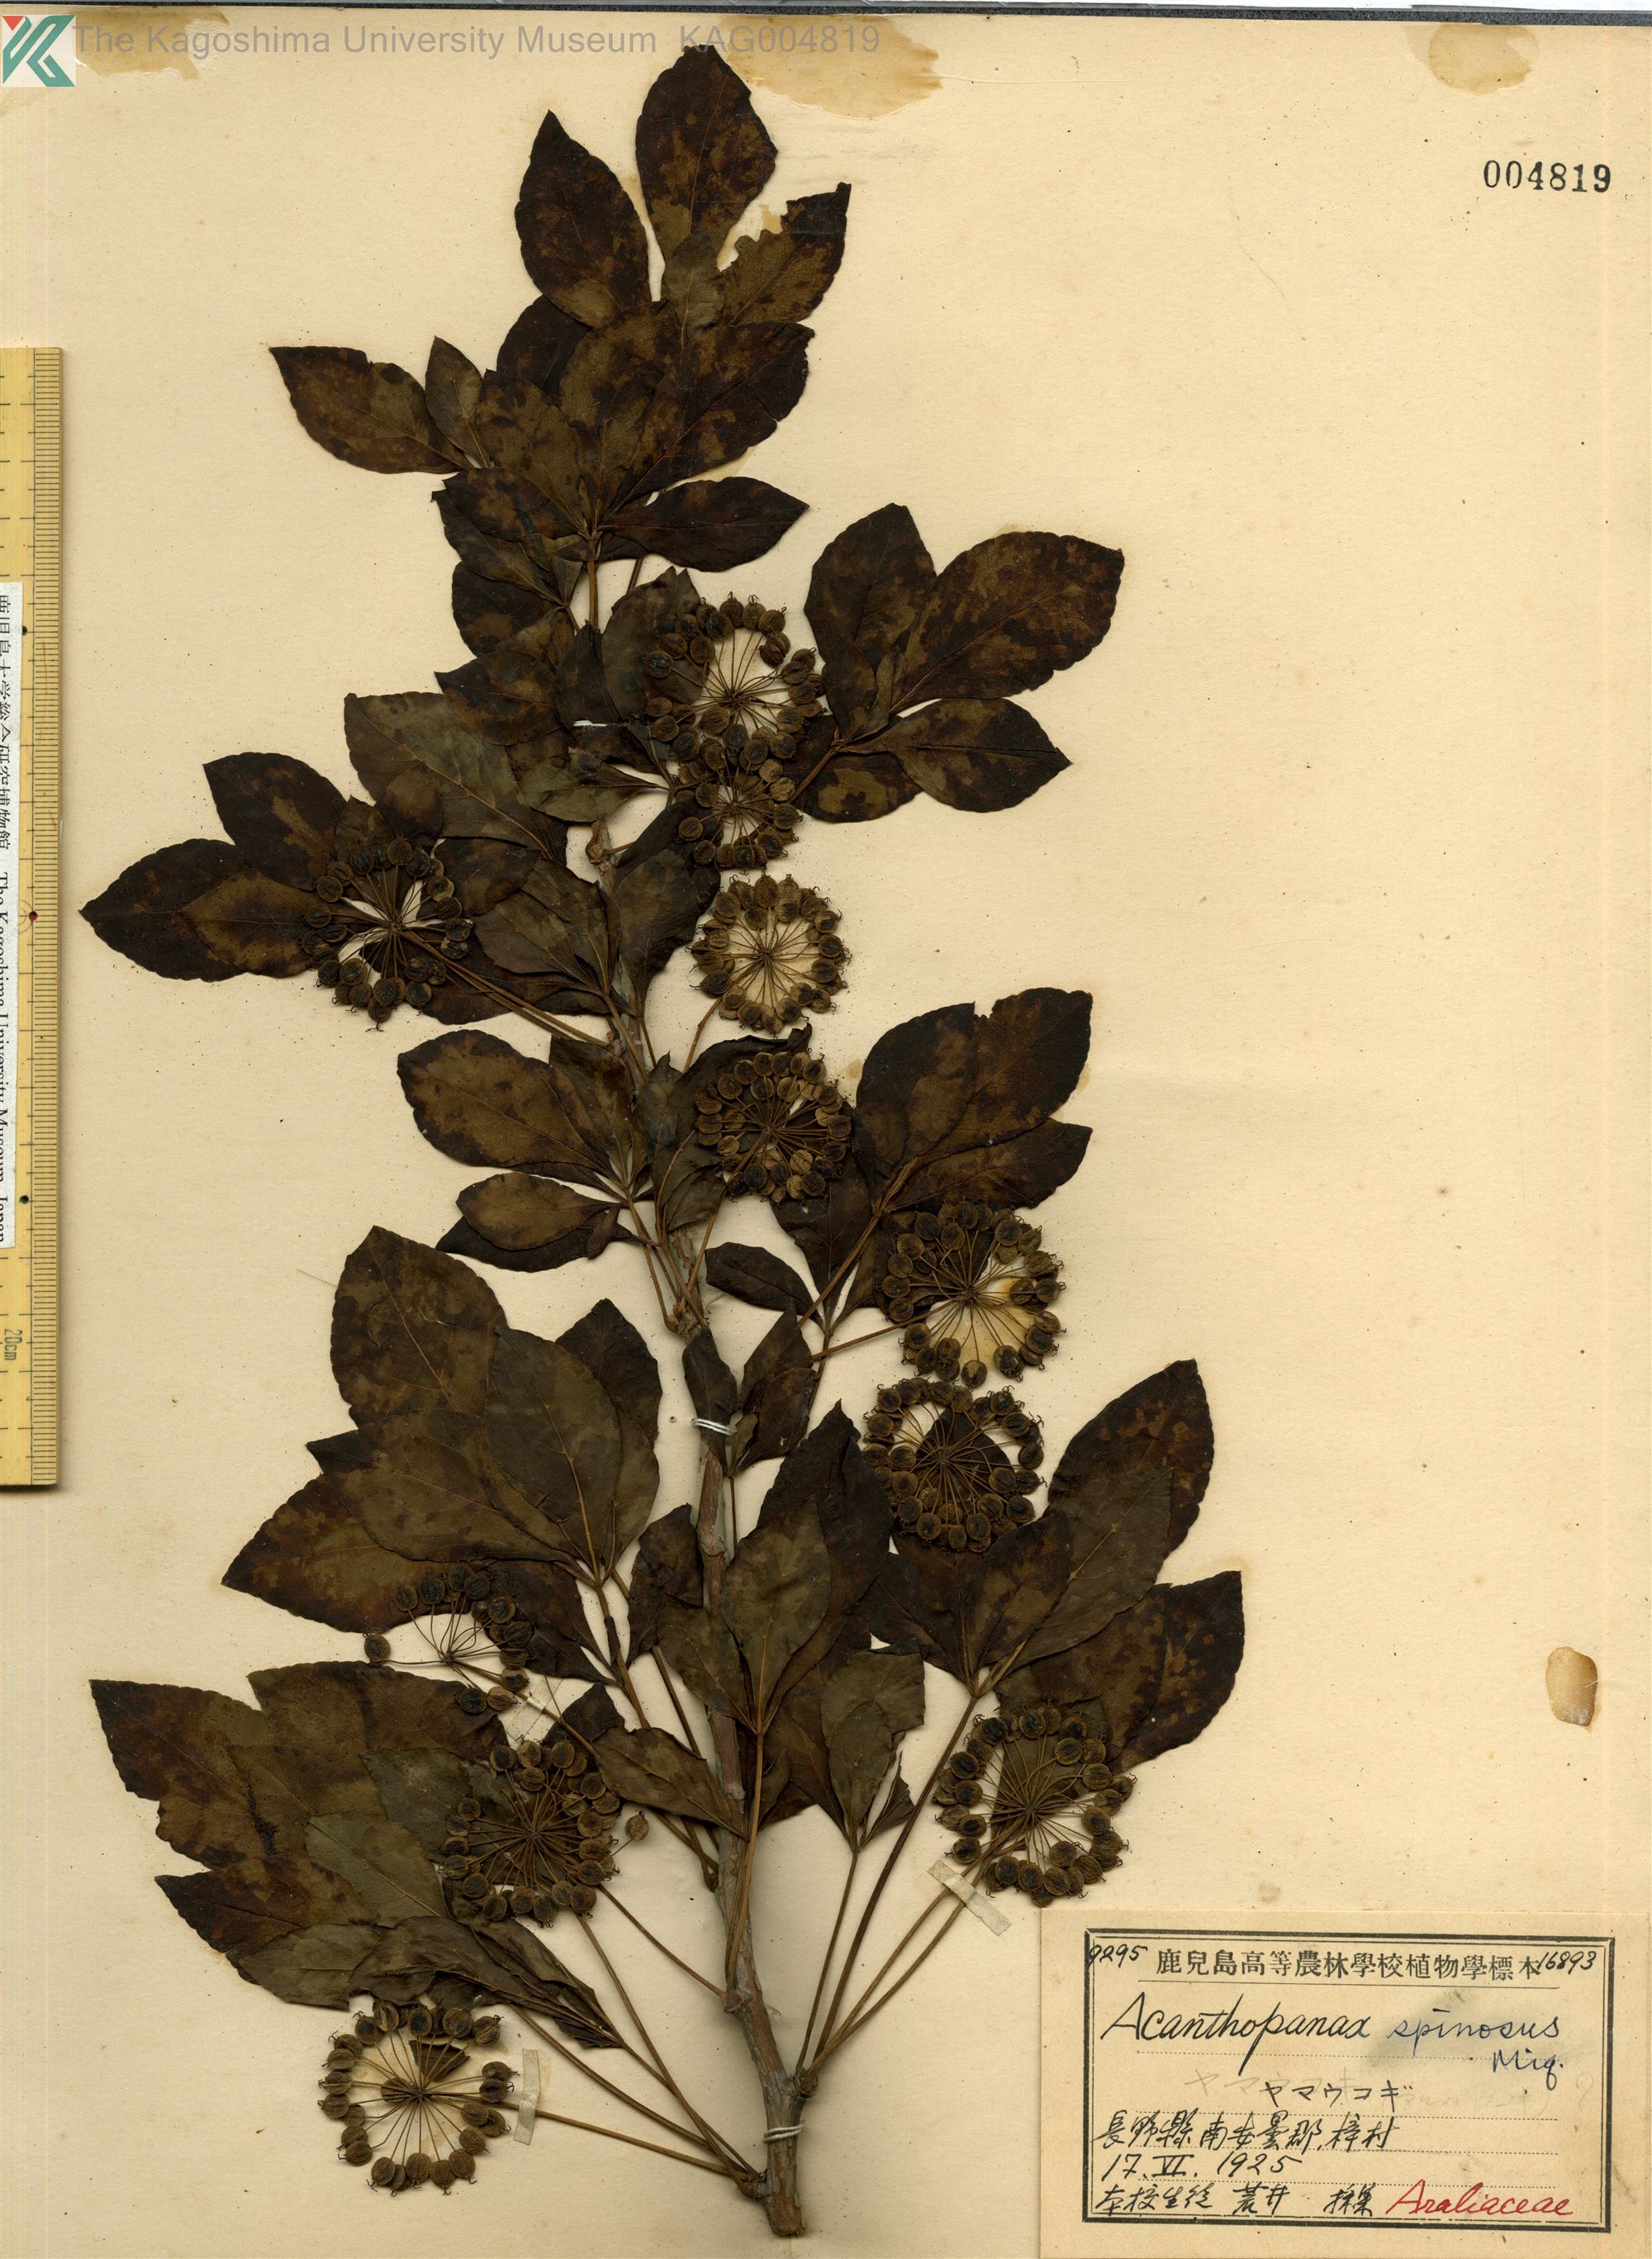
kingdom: Plantae
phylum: Tracheophyta
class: Magnoliopsida
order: Apiales
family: Araliaceae
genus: Eleutherococcus
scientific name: Eleutherococcus nodiflorus
